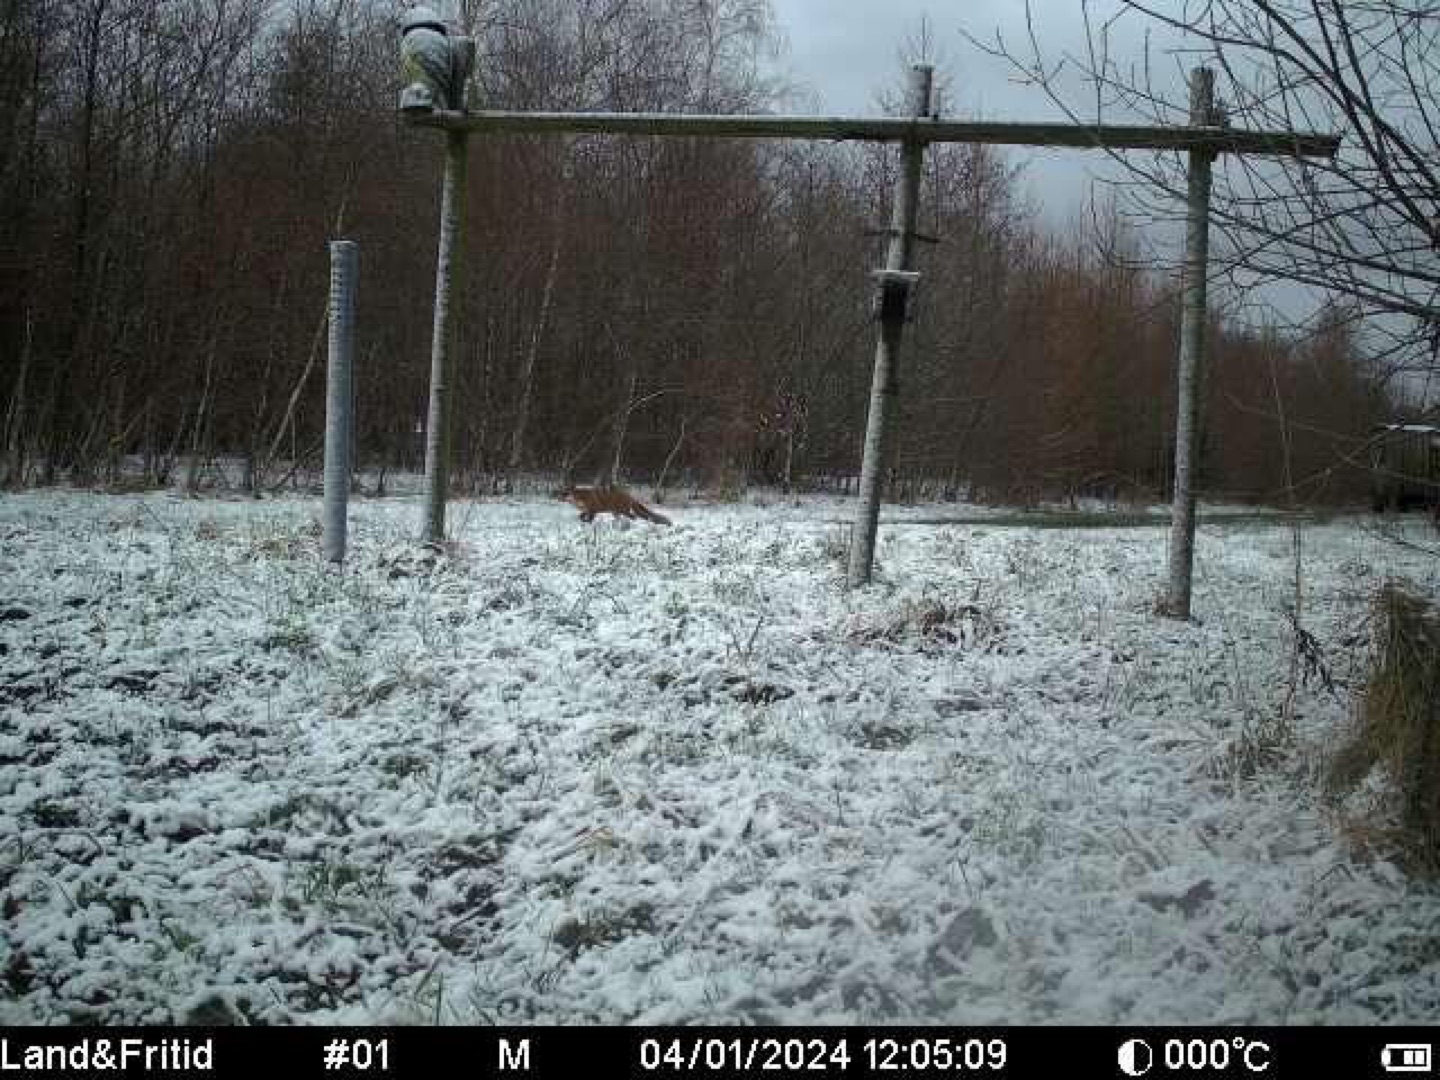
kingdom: Animalia
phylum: Chordata
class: Mammalia
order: Carnivora
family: Canidae
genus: Vulpes
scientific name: Vulpes vulpes
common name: Ræv
